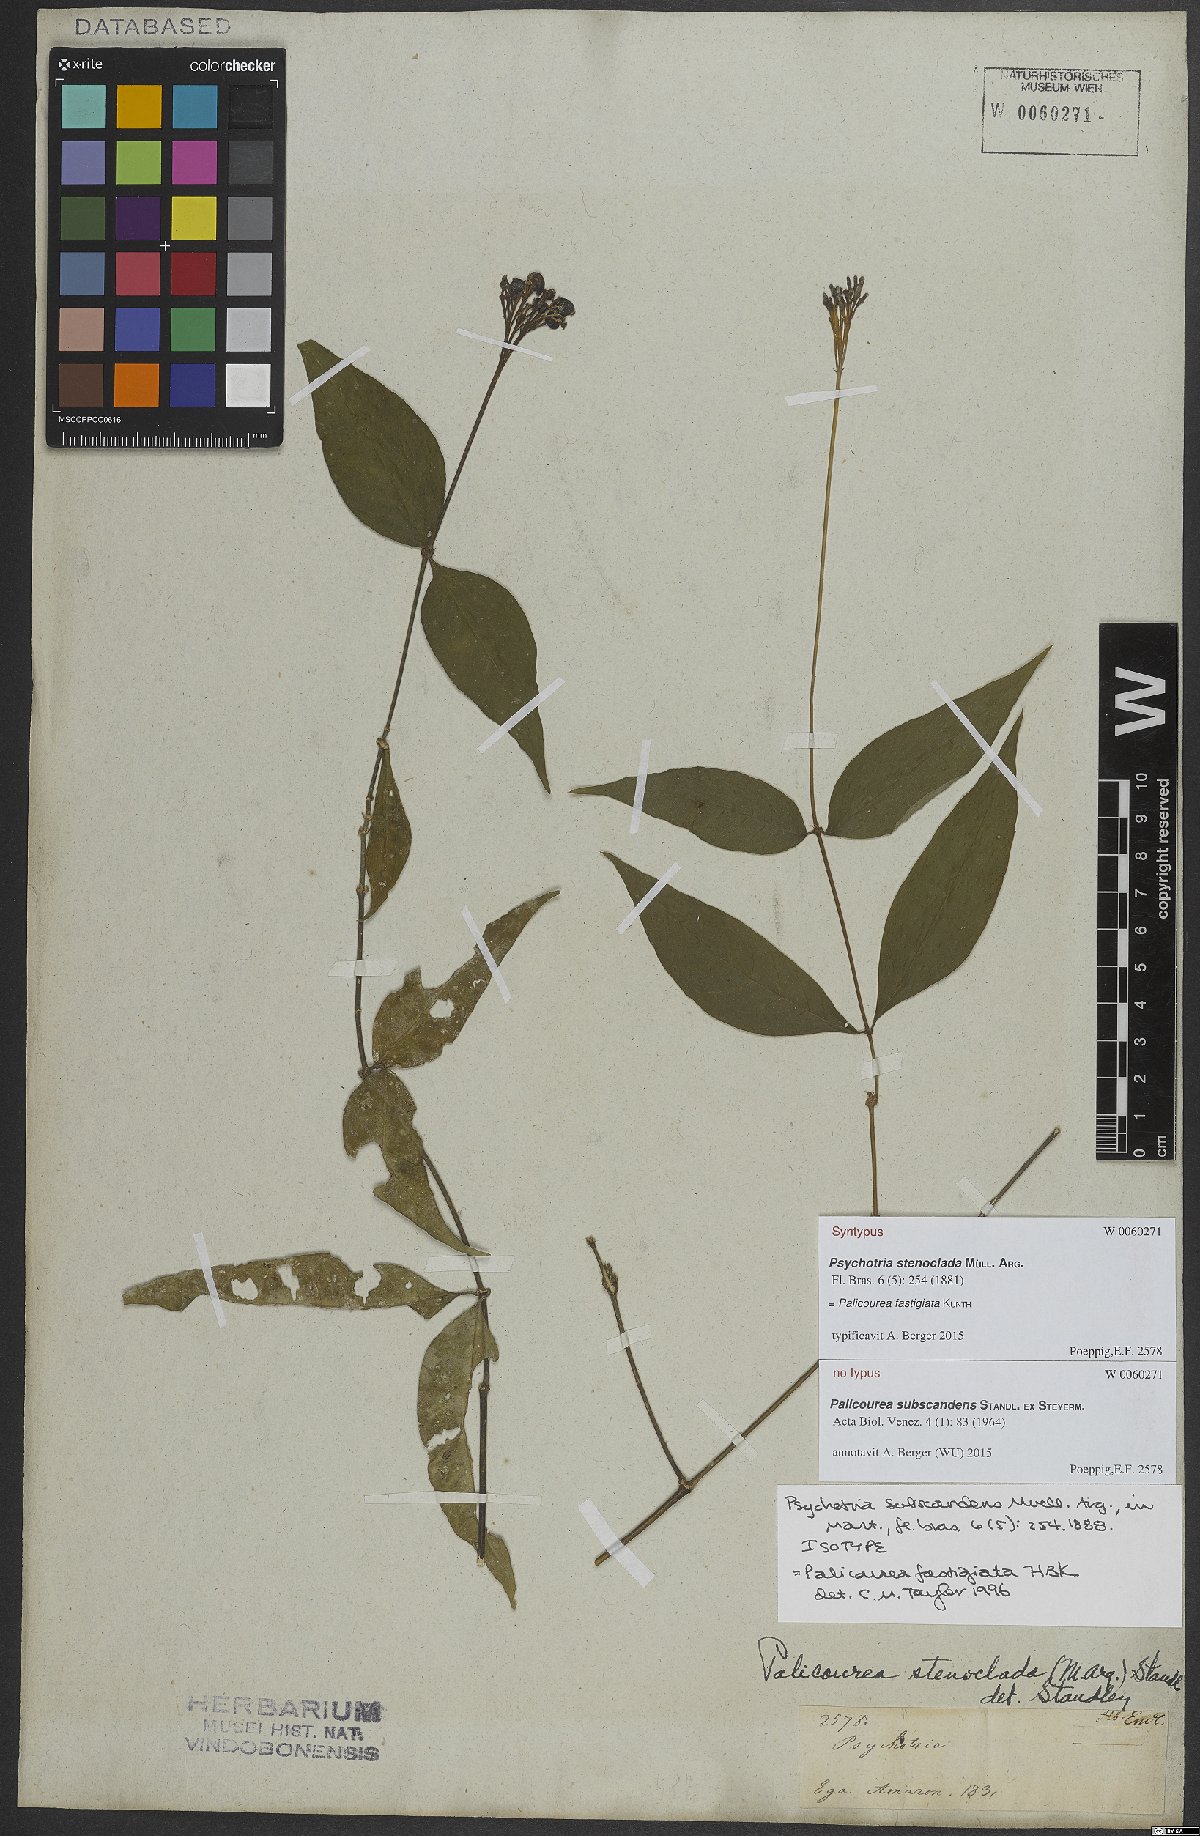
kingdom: Plantae
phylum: Tracheophyta
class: Magnoliopsida
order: Gentianales
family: Rubiaceae
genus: Palicourea
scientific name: Palicourea fastigiata
